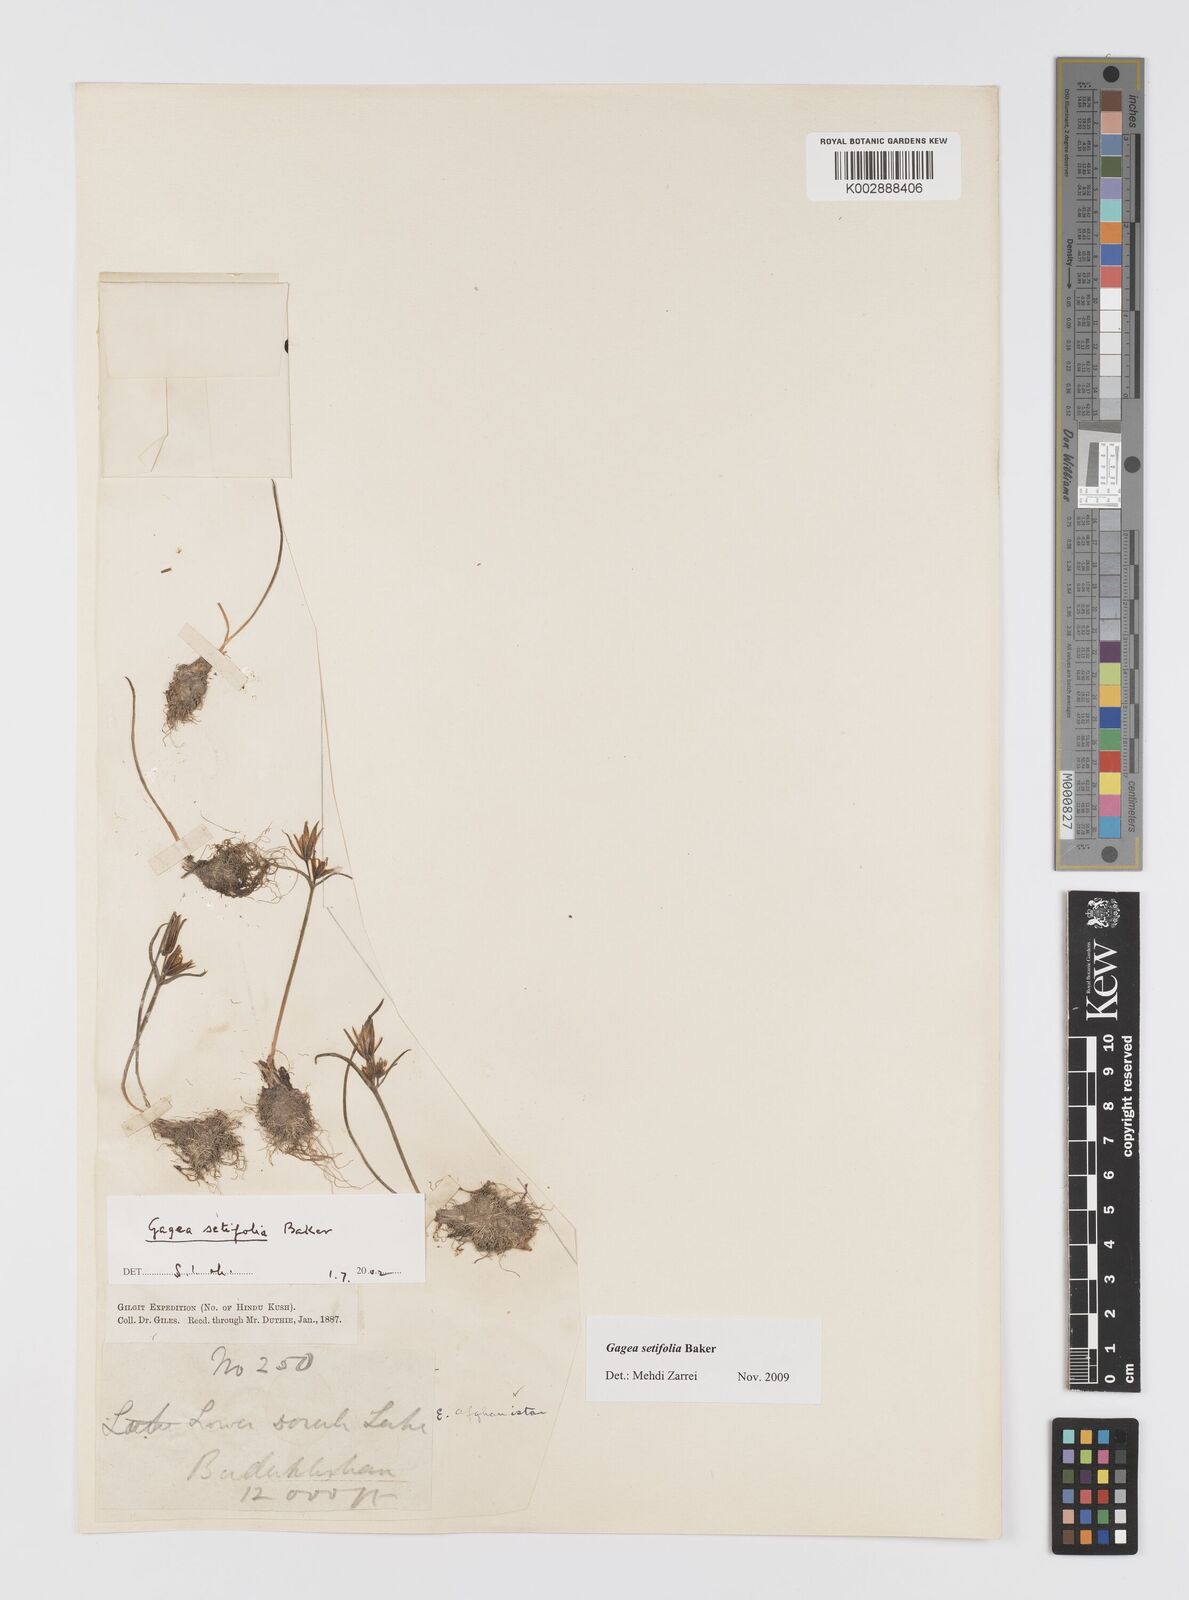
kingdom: Plantae
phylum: Tracheophyta
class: Liliopsida
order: Liliales
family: Liliaceae
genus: Gagea
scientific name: Gagea reticulata
